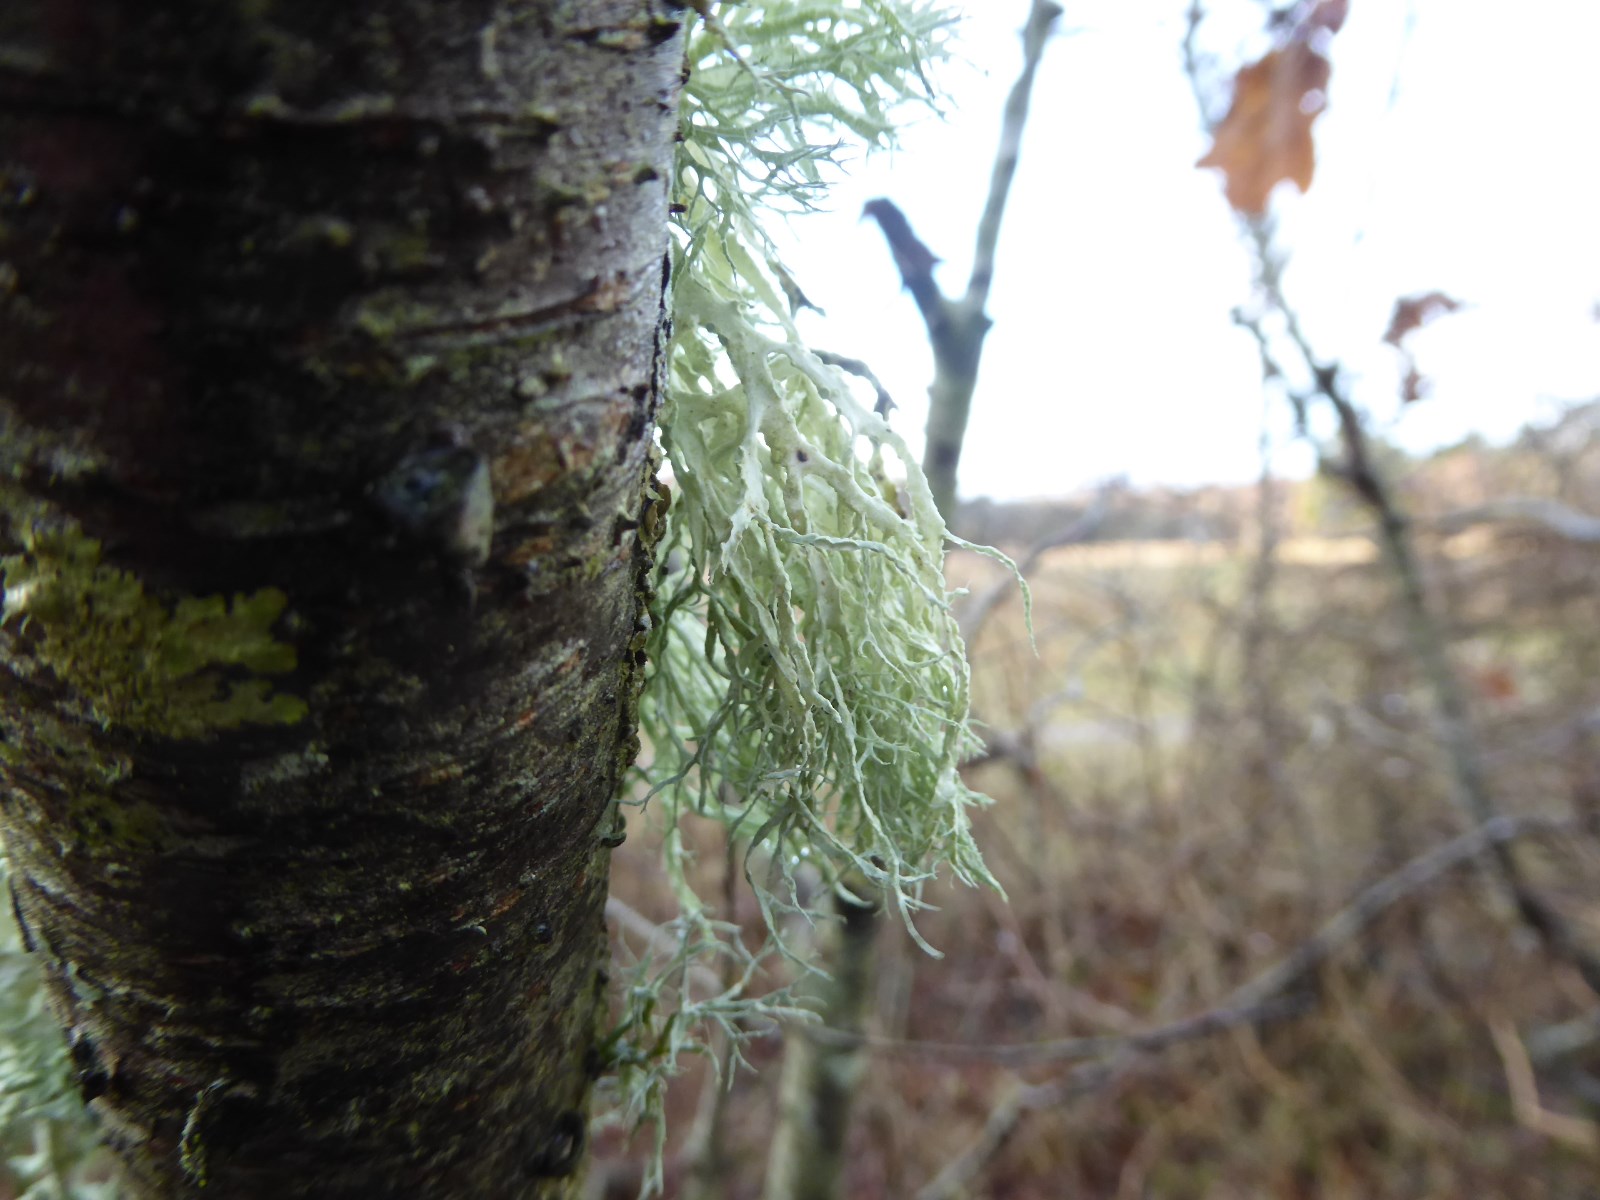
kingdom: Fungi
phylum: Ascomycota
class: Lecanoromycetes
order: Lecanorales
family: Ramalinaceae
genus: Ramalina
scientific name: Ramalina farinacea
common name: melet grenlav
